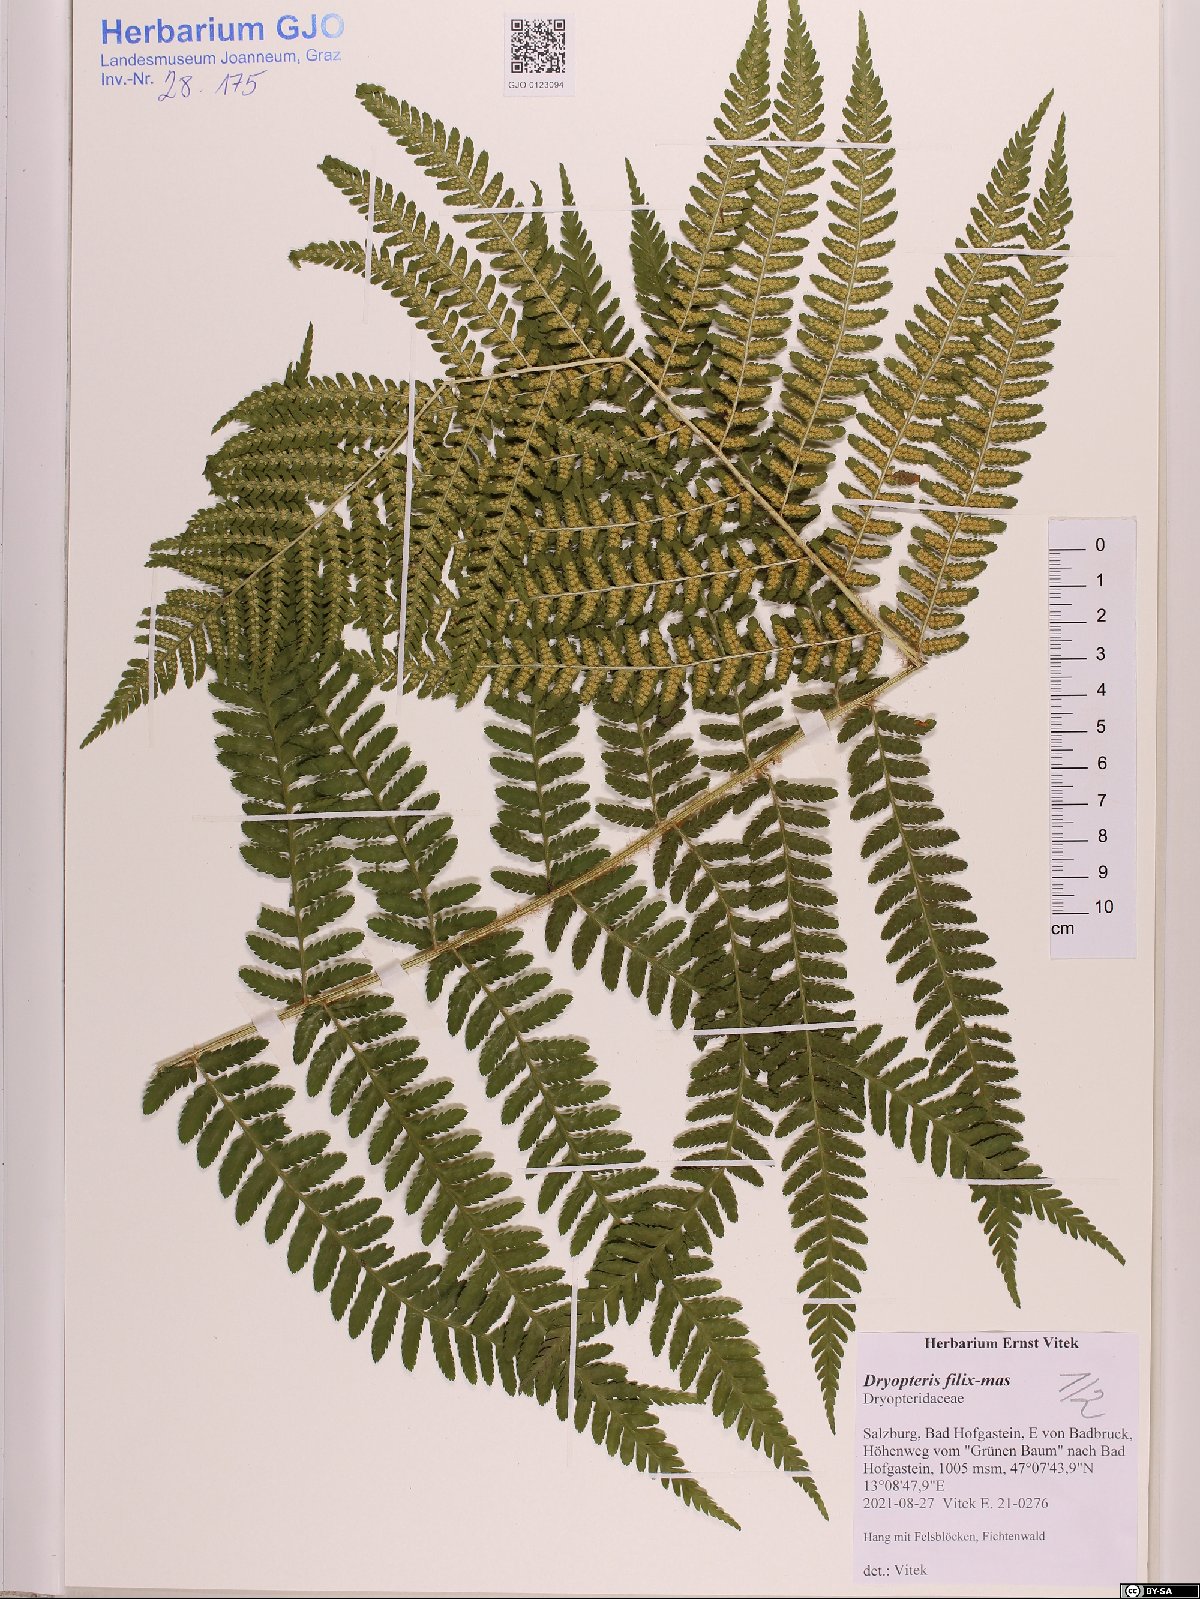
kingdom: Plantae
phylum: Tracheophyta
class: Polypodiopsida
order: Polypodiales
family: Dryopteridaceae
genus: Dryopteris
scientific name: Dryopteris filix-mas
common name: Male fern
